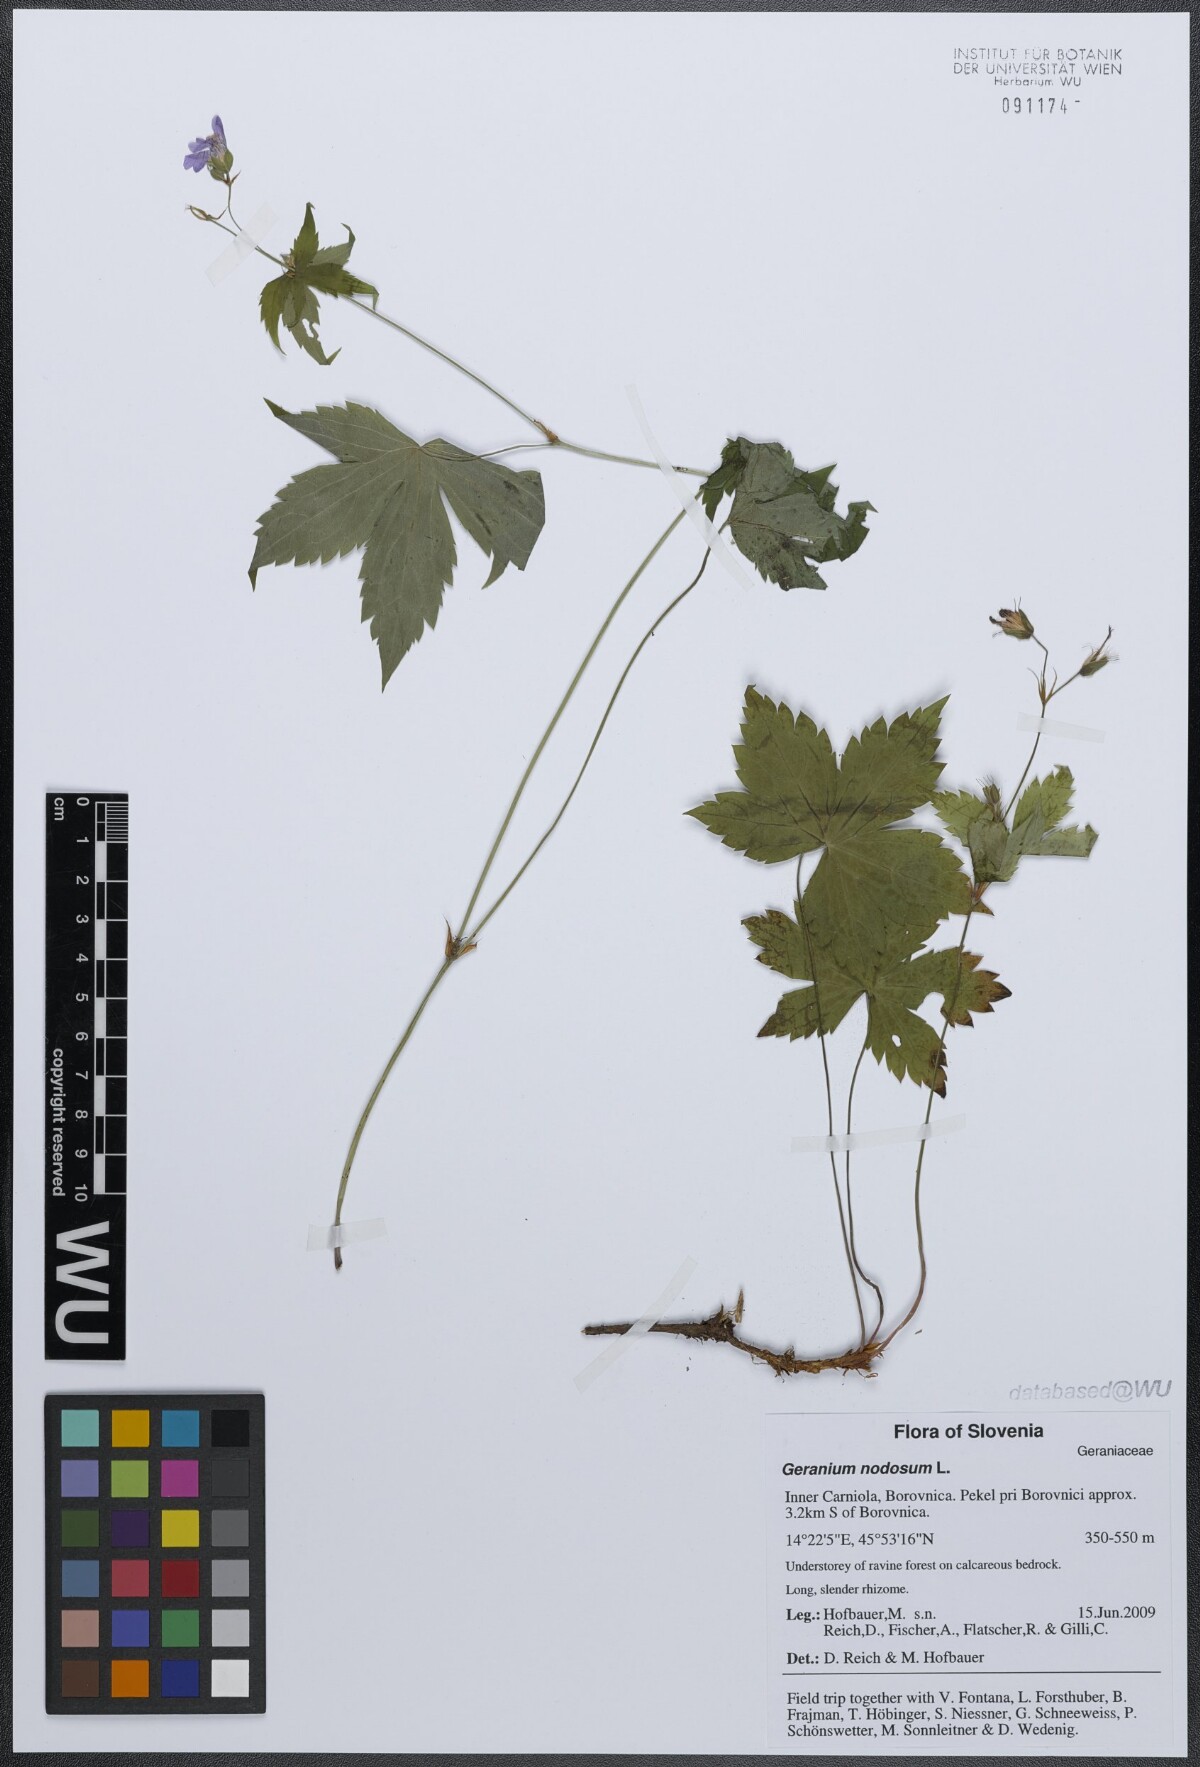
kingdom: Plantae
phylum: Tracheophyta
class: Magnoliopsida
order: Geraniales
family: Geraniaceae
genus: Geranium
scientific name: Geranium nodosum
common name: Knotted crane's-bill
